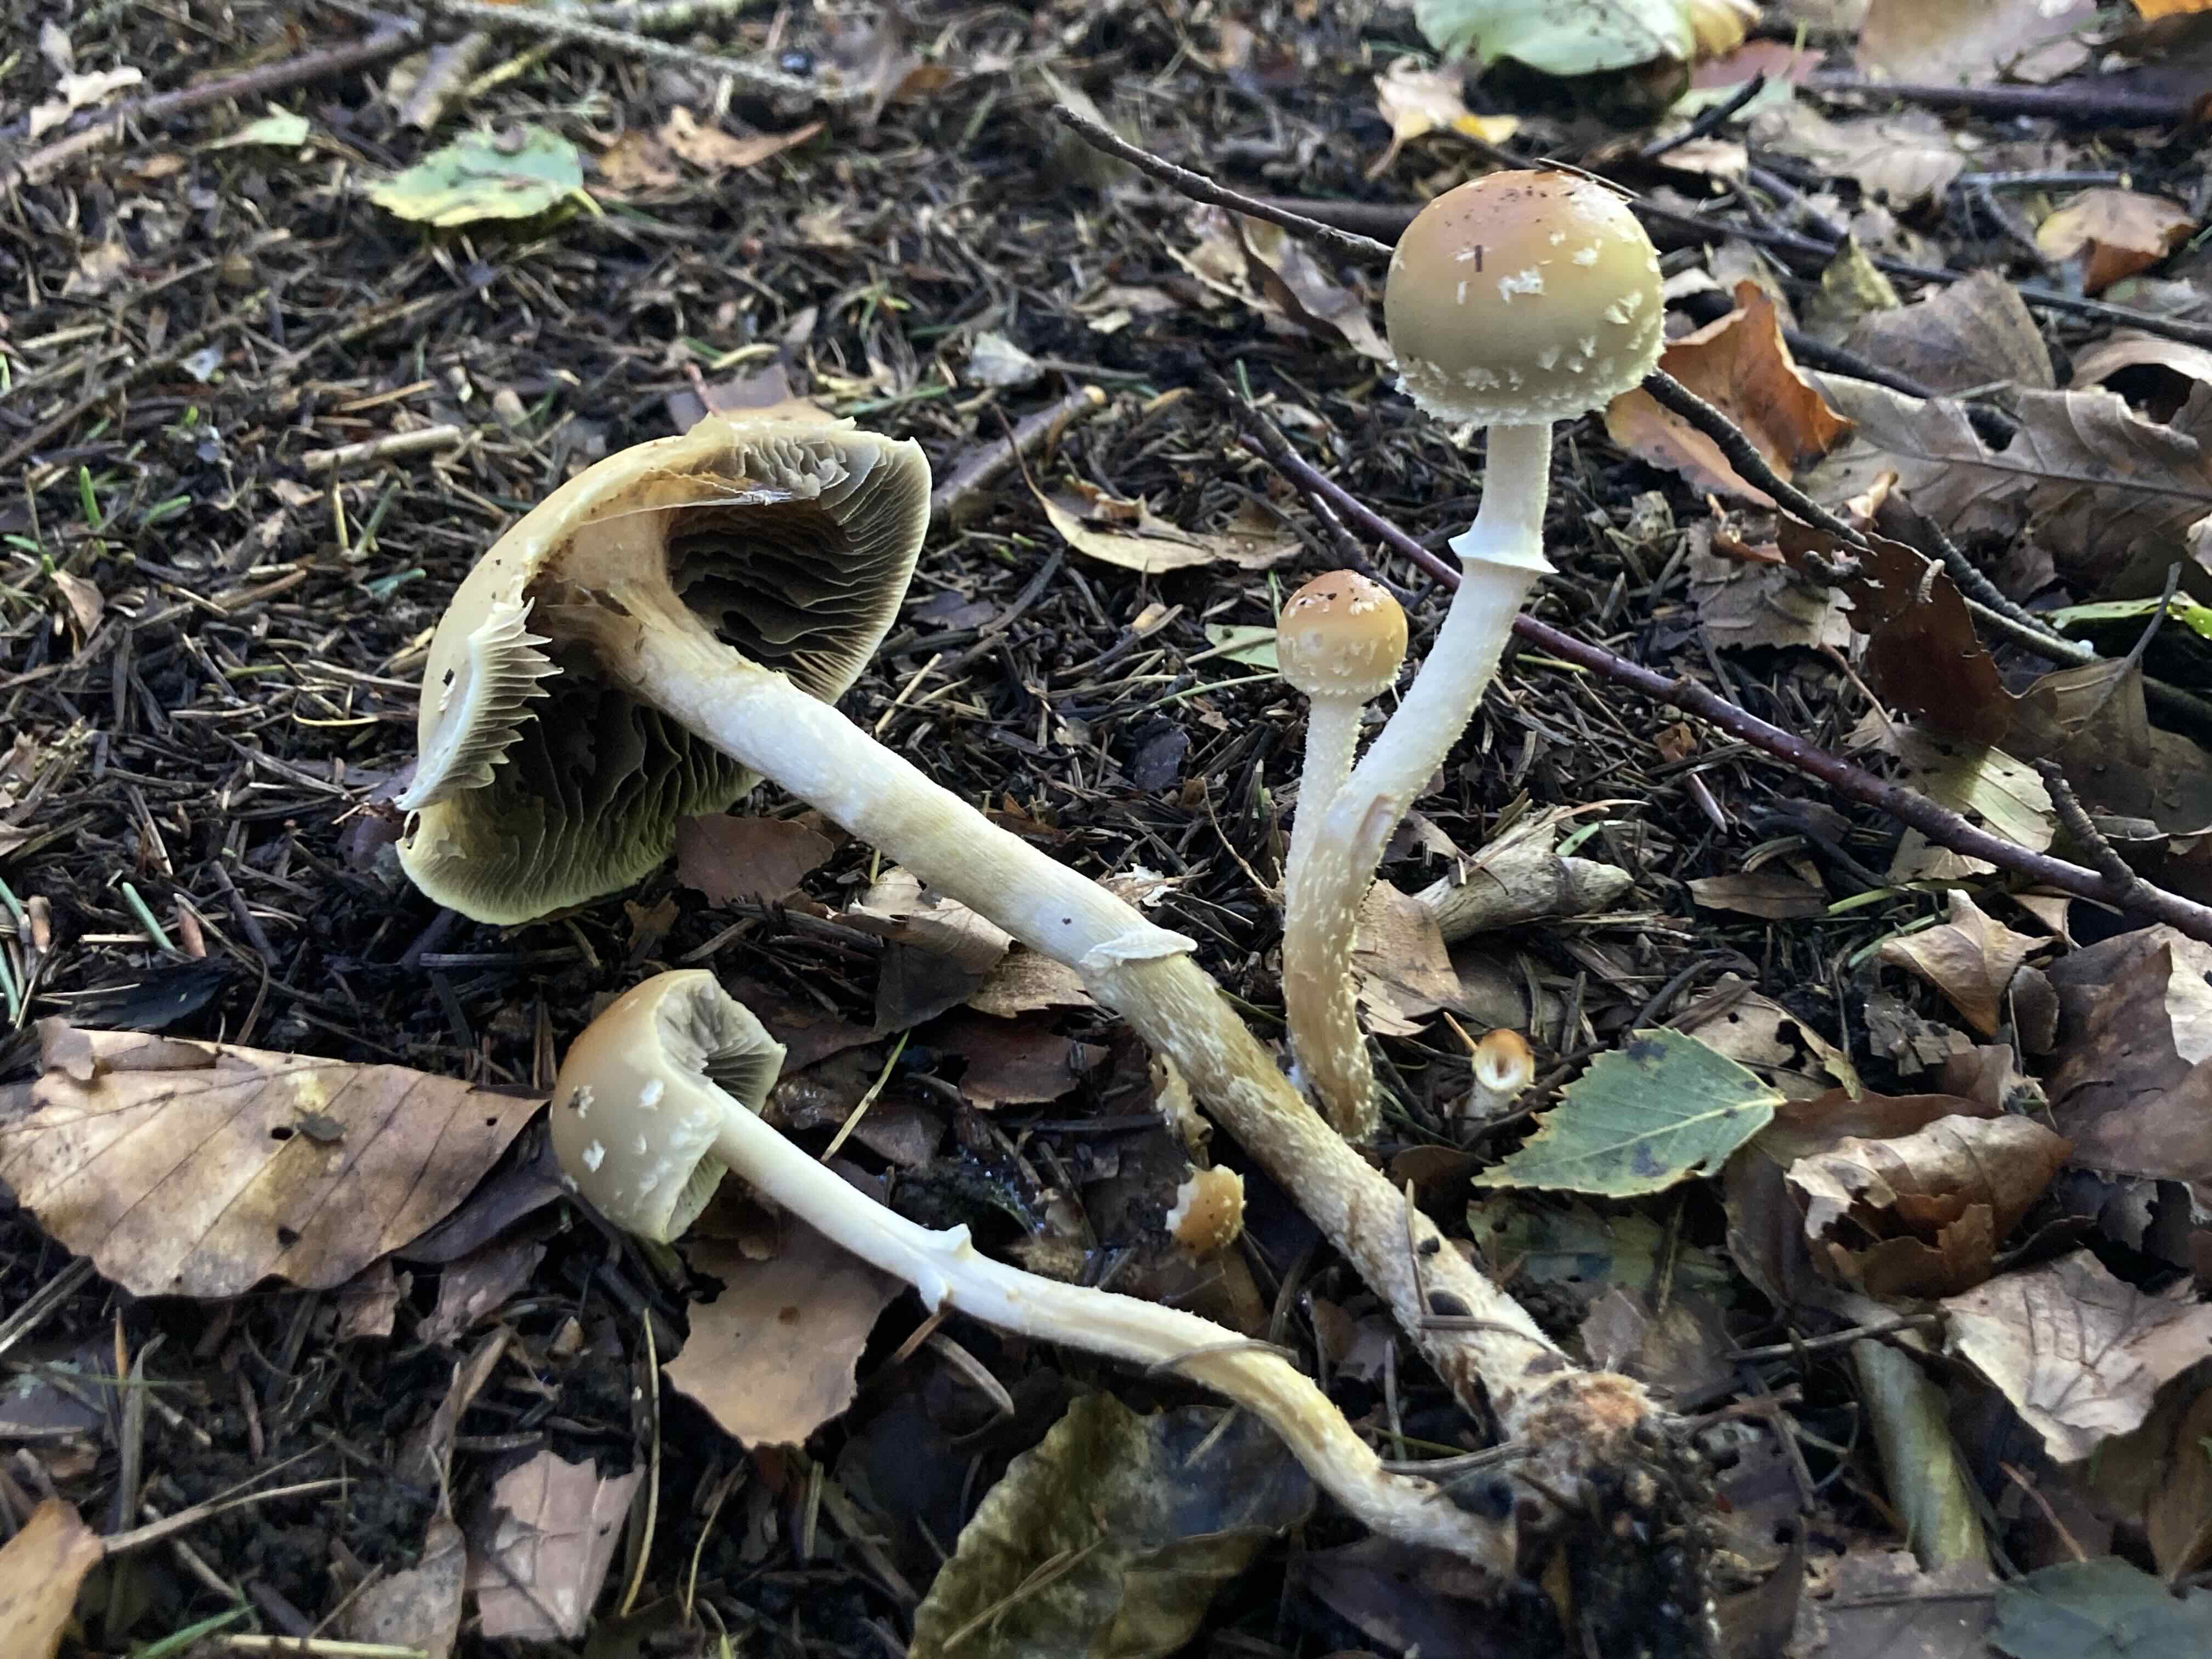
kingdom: Fungi
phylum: Basidiomycota
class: Agaricomycetes
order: Agaricales
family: Strophariaceae
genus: Leratiomyces
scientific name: Leratiomyces squamosus
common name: skællet bredblad
